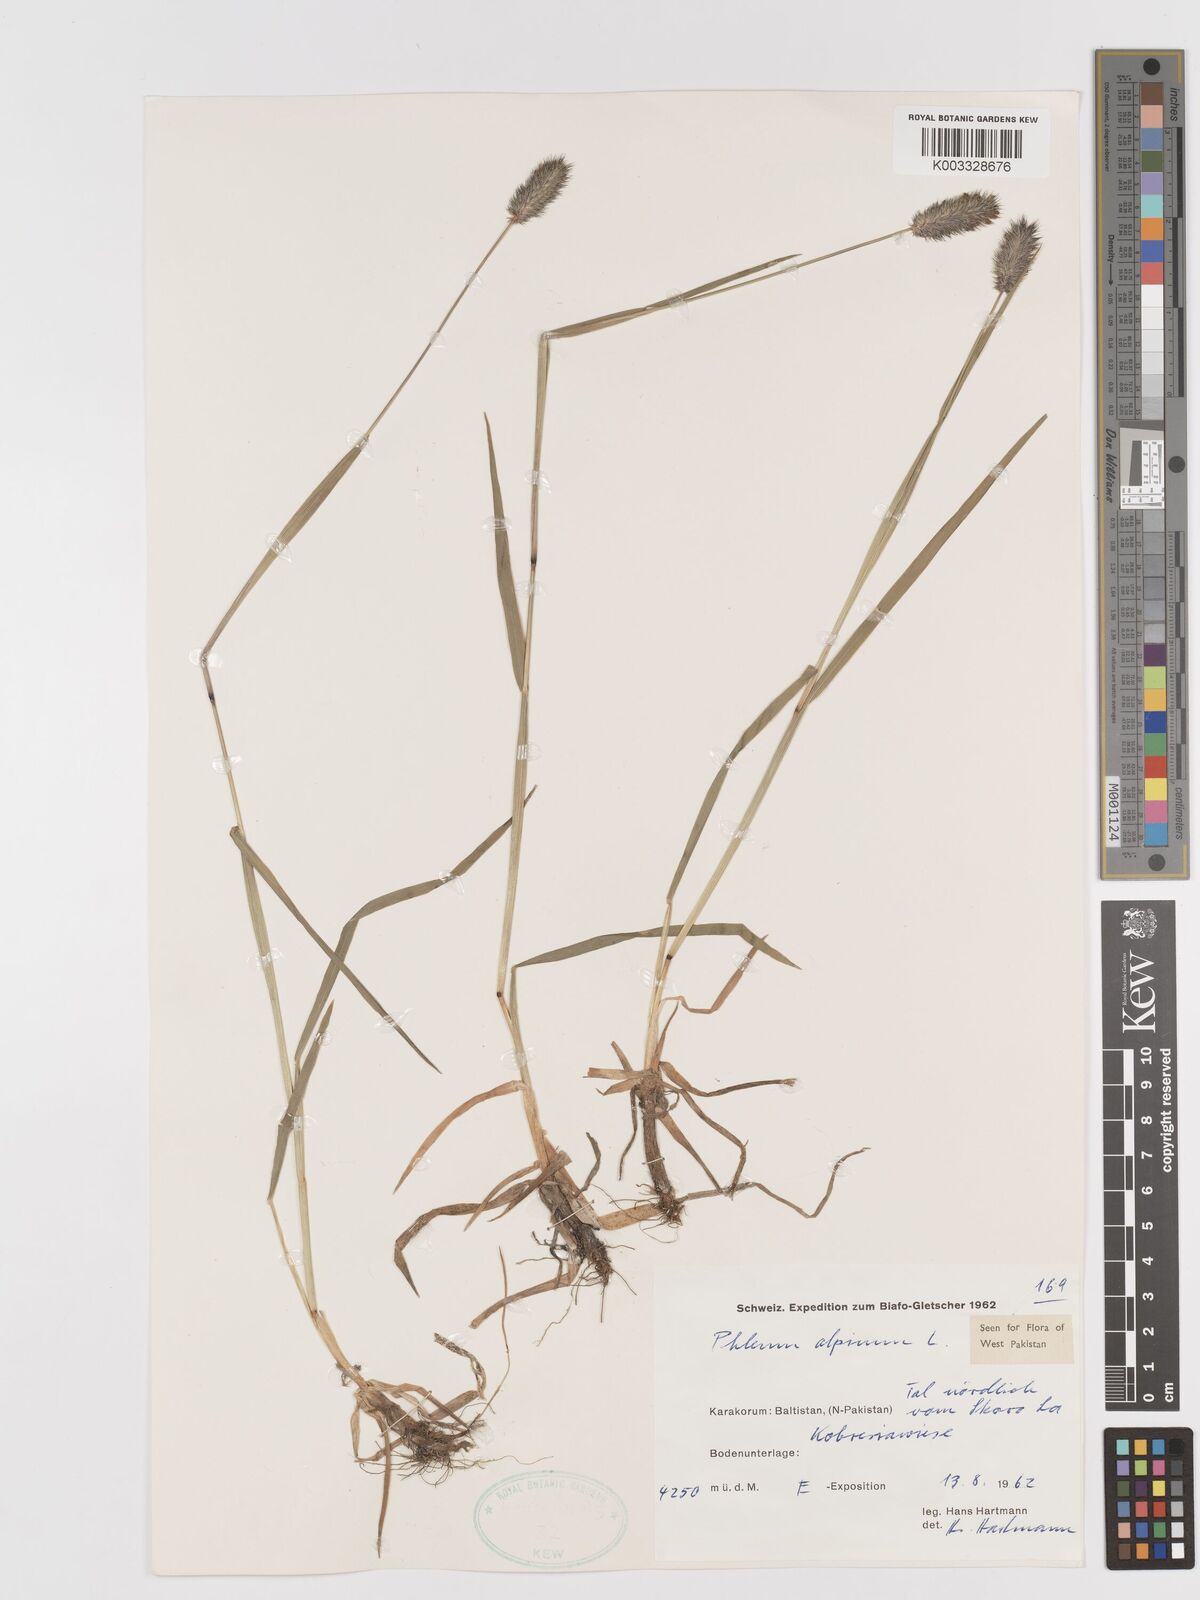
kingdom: Plantae
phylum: Tracheophyta
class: Liliopsida
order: Poales
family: Poaceae
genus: Phleum
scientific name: Phleum alpinum
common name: Alpine cat's-tail
